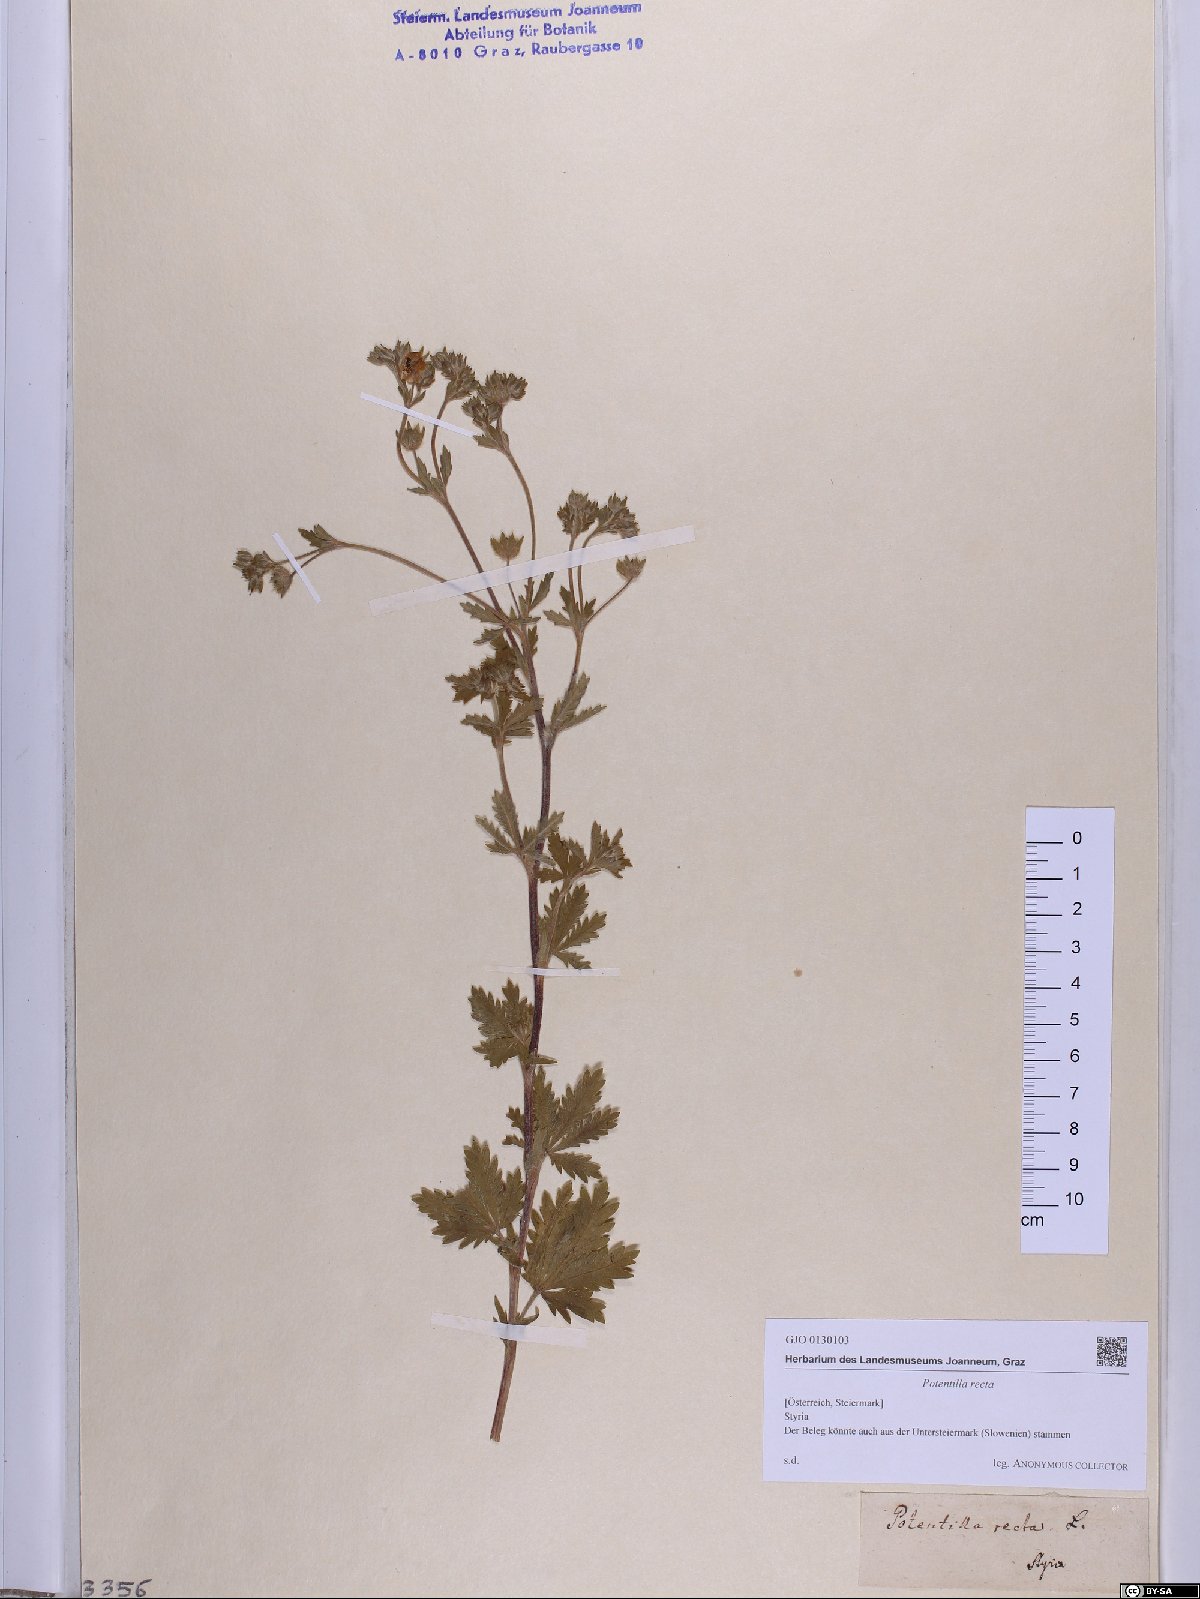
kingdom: Plantae
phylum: Tracheophyta
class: Magnoliopsida
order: Rosales
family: Rosaceae
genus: Potentilla
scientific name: Potentilla recta
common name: Sulphur cinquefoil
